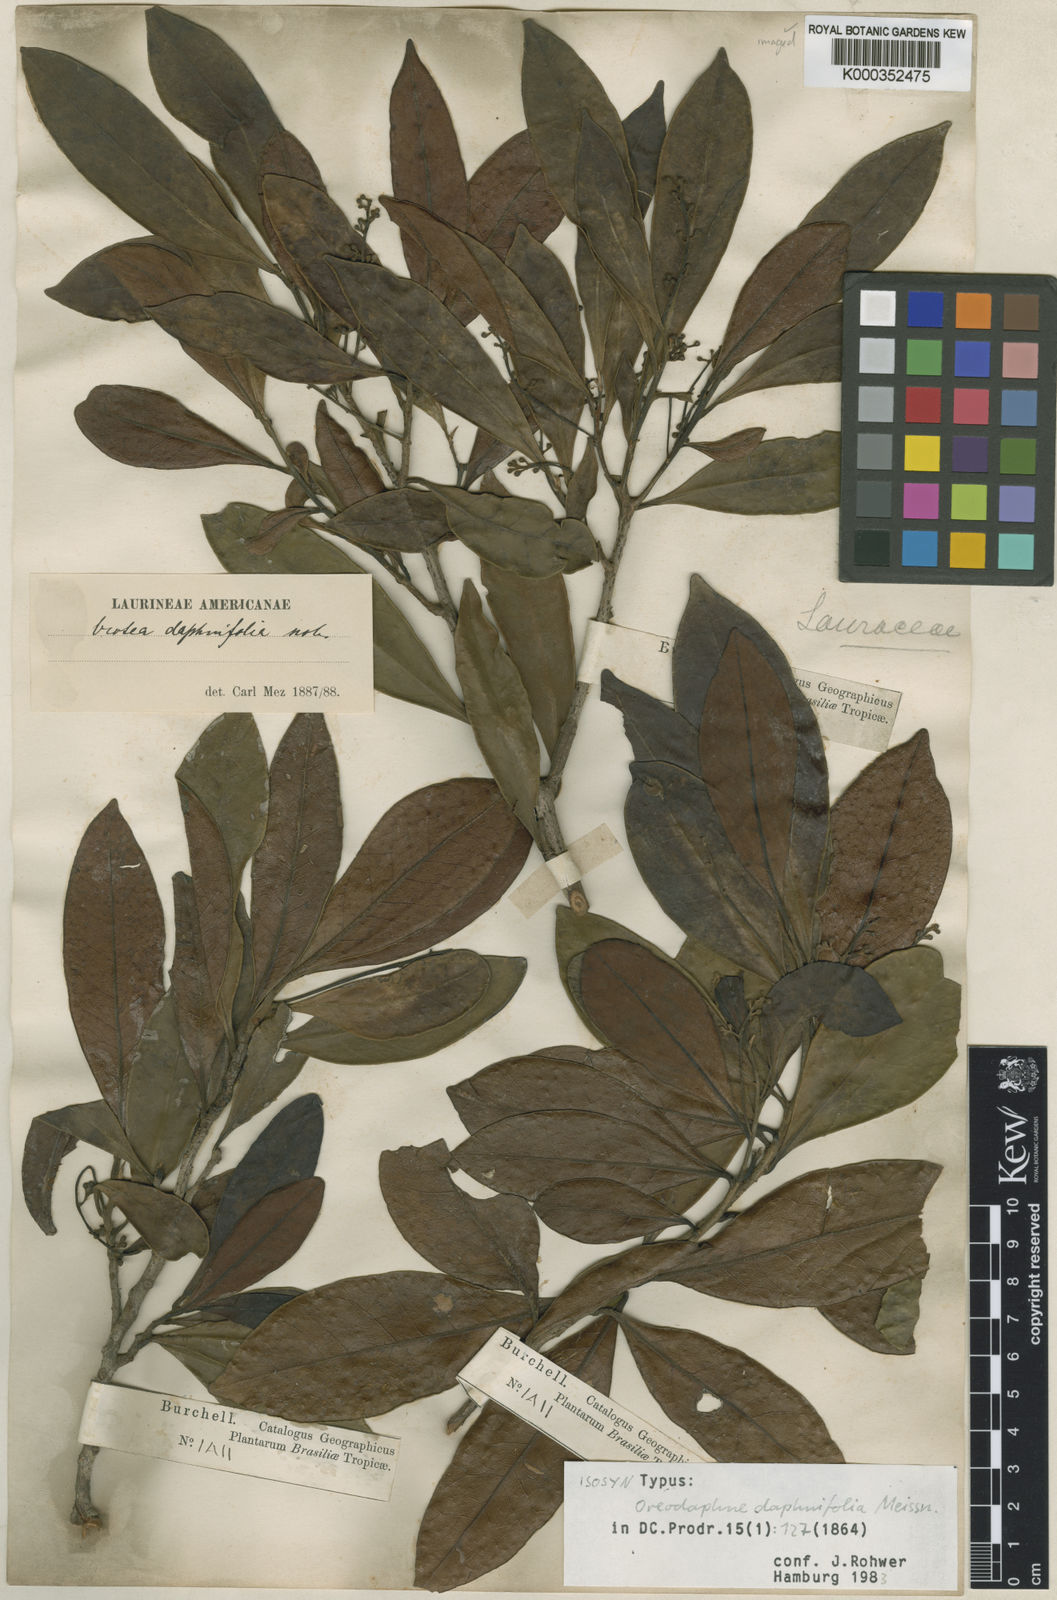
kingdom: Plantae
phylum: Tracheophyta
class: Magnoliopsida
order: Laurales
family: Lauraceae
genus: Ocotea
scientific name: Ocotea daphnifolia
